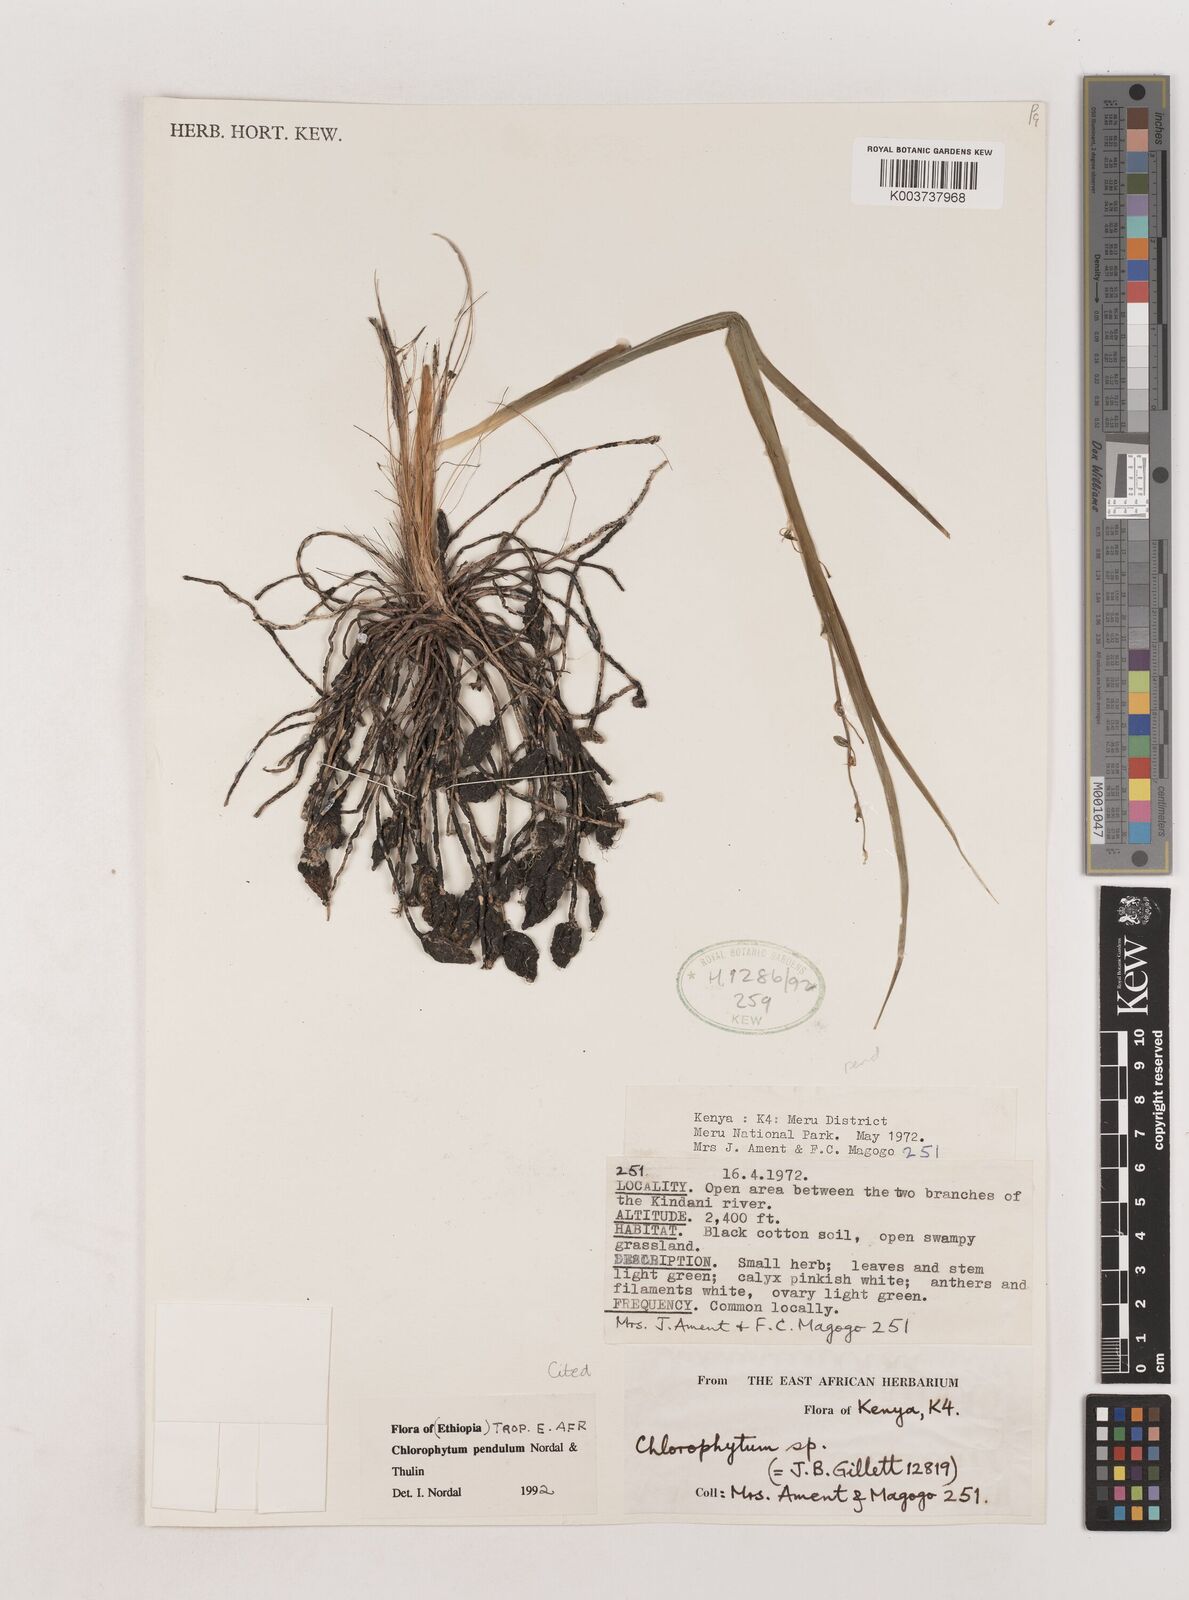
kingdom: Plantae
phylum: Tracheophyta
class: Liliopsida
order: Asparagales
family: Asparagaceae
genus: Chlorophytum
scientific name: Chlorophytum pendulum
